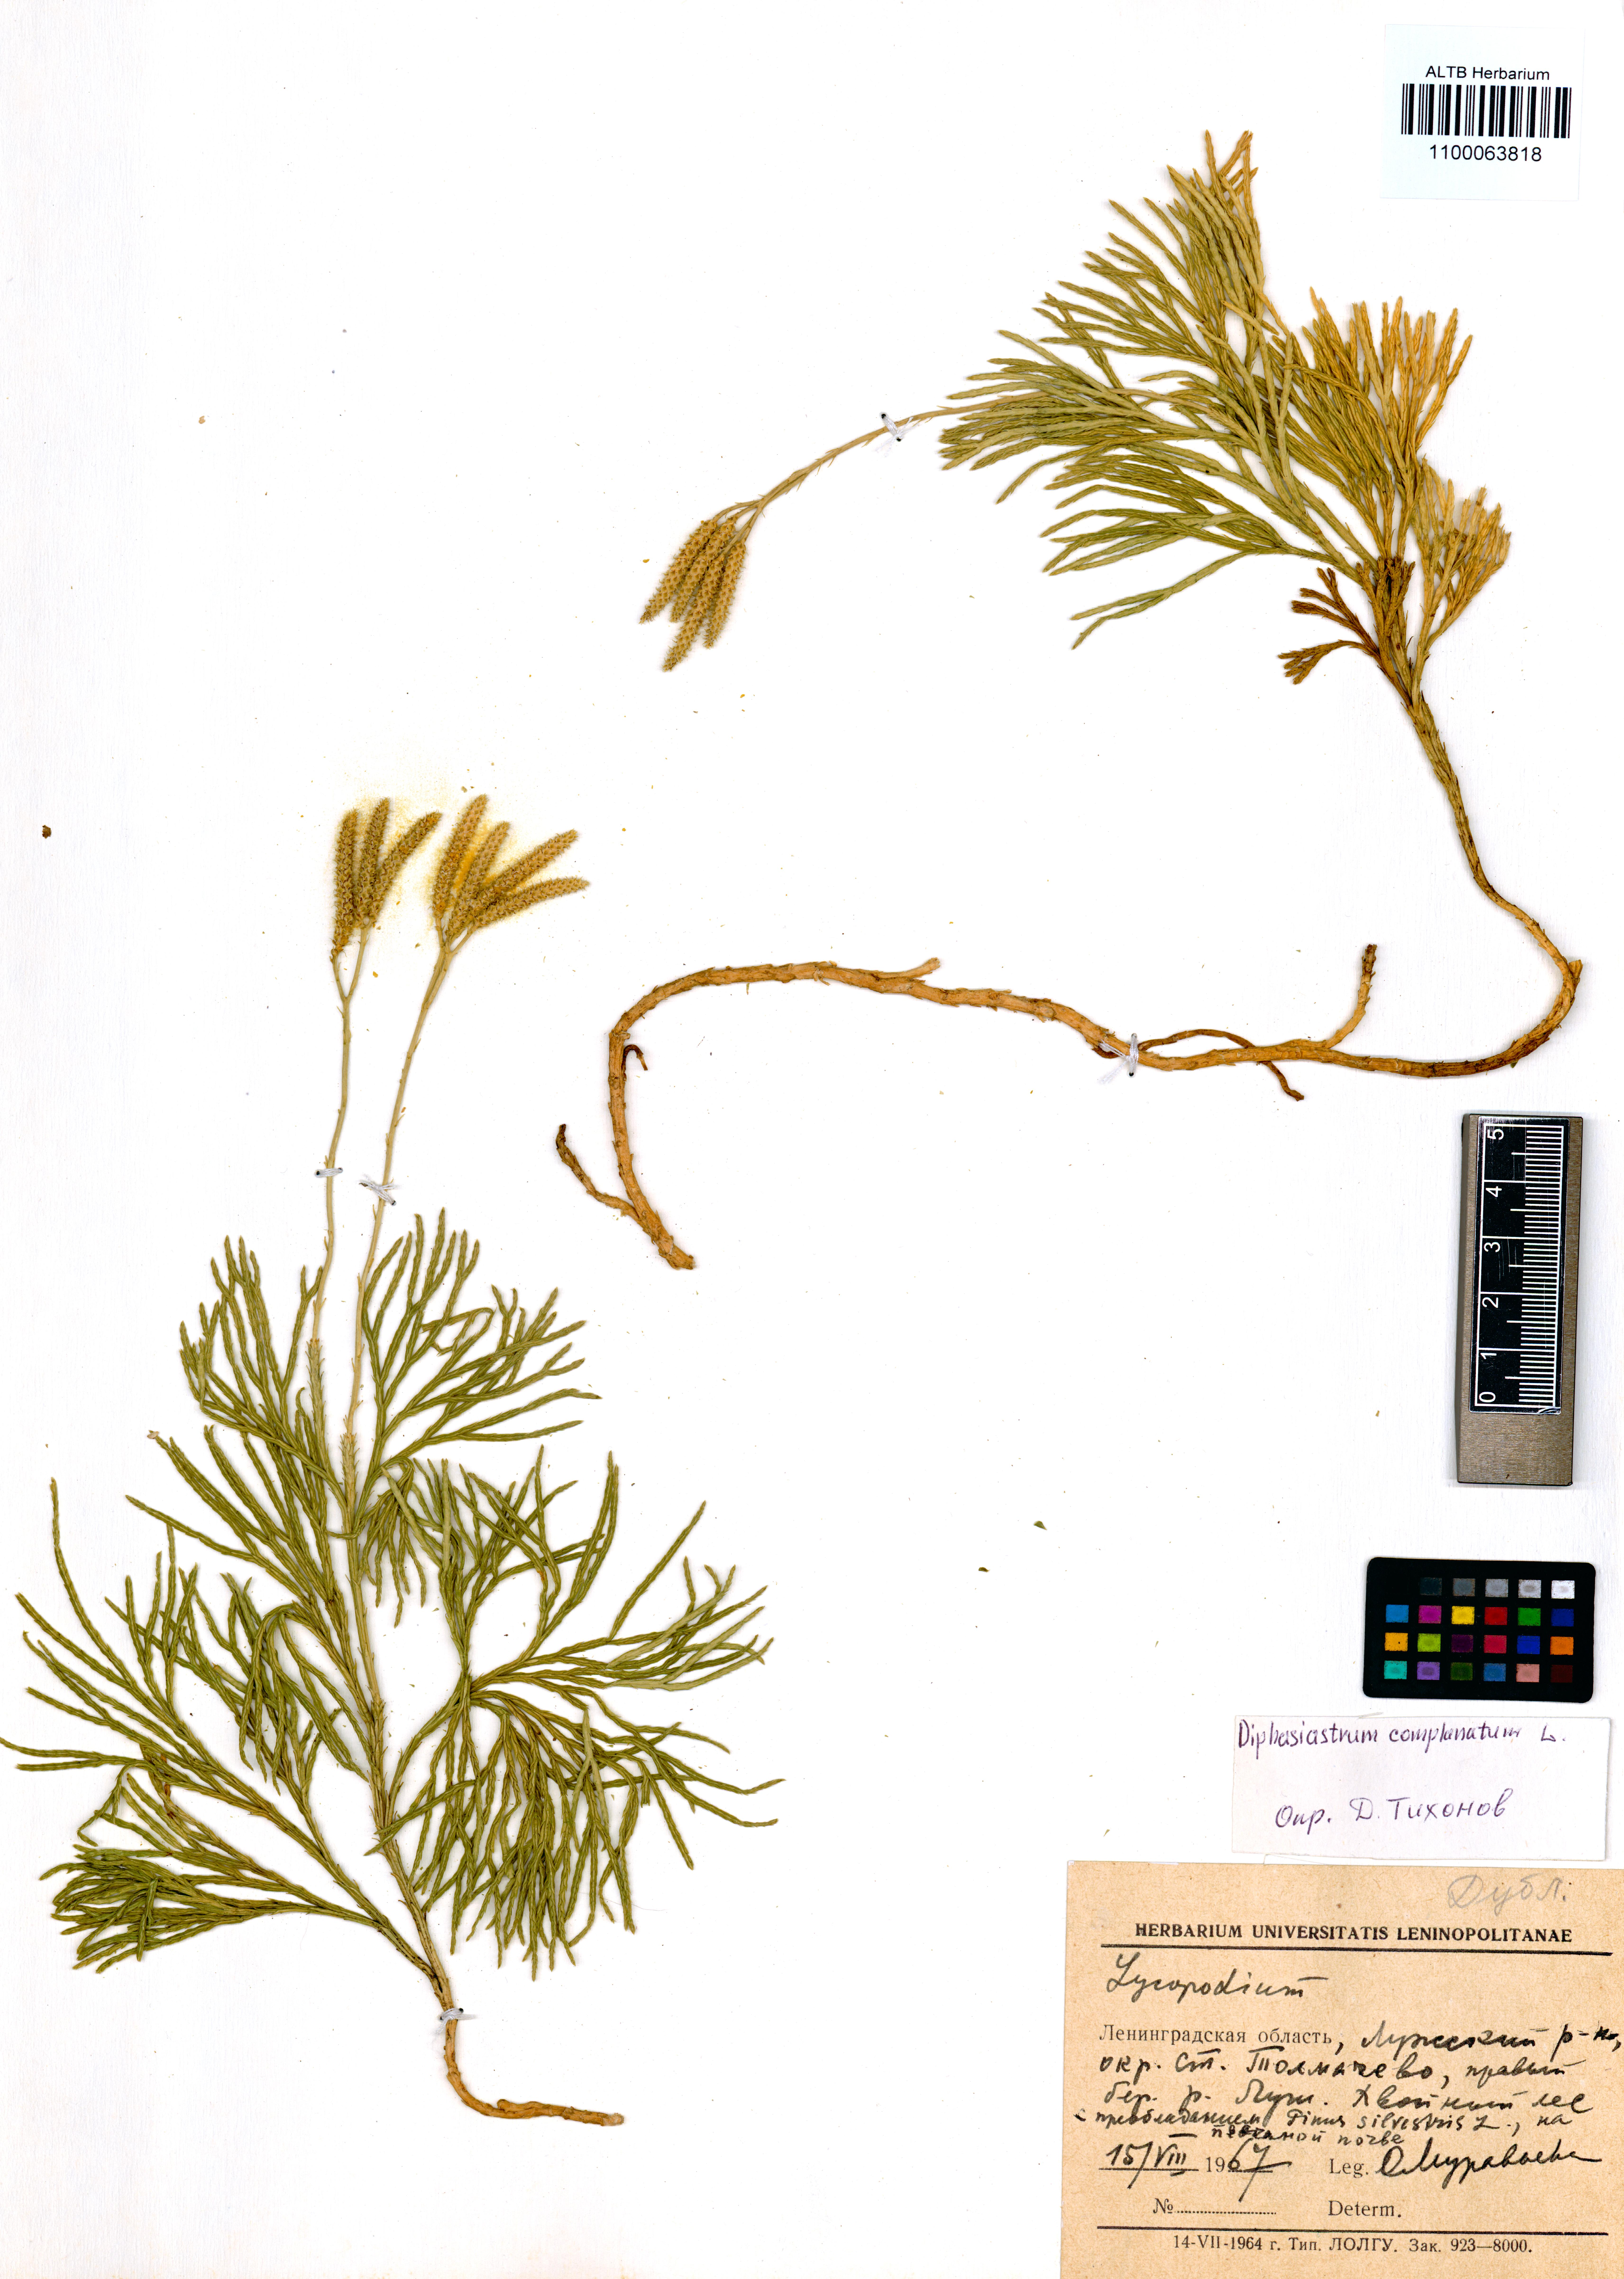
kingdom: Plantae
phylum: Tracheophyta
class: Lycopodiopsida
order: Lycopodiales
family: Lycopodiaceae
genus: Diphasiastrum
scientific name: Diphasiastrum complanatum
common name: Northern running-pine
